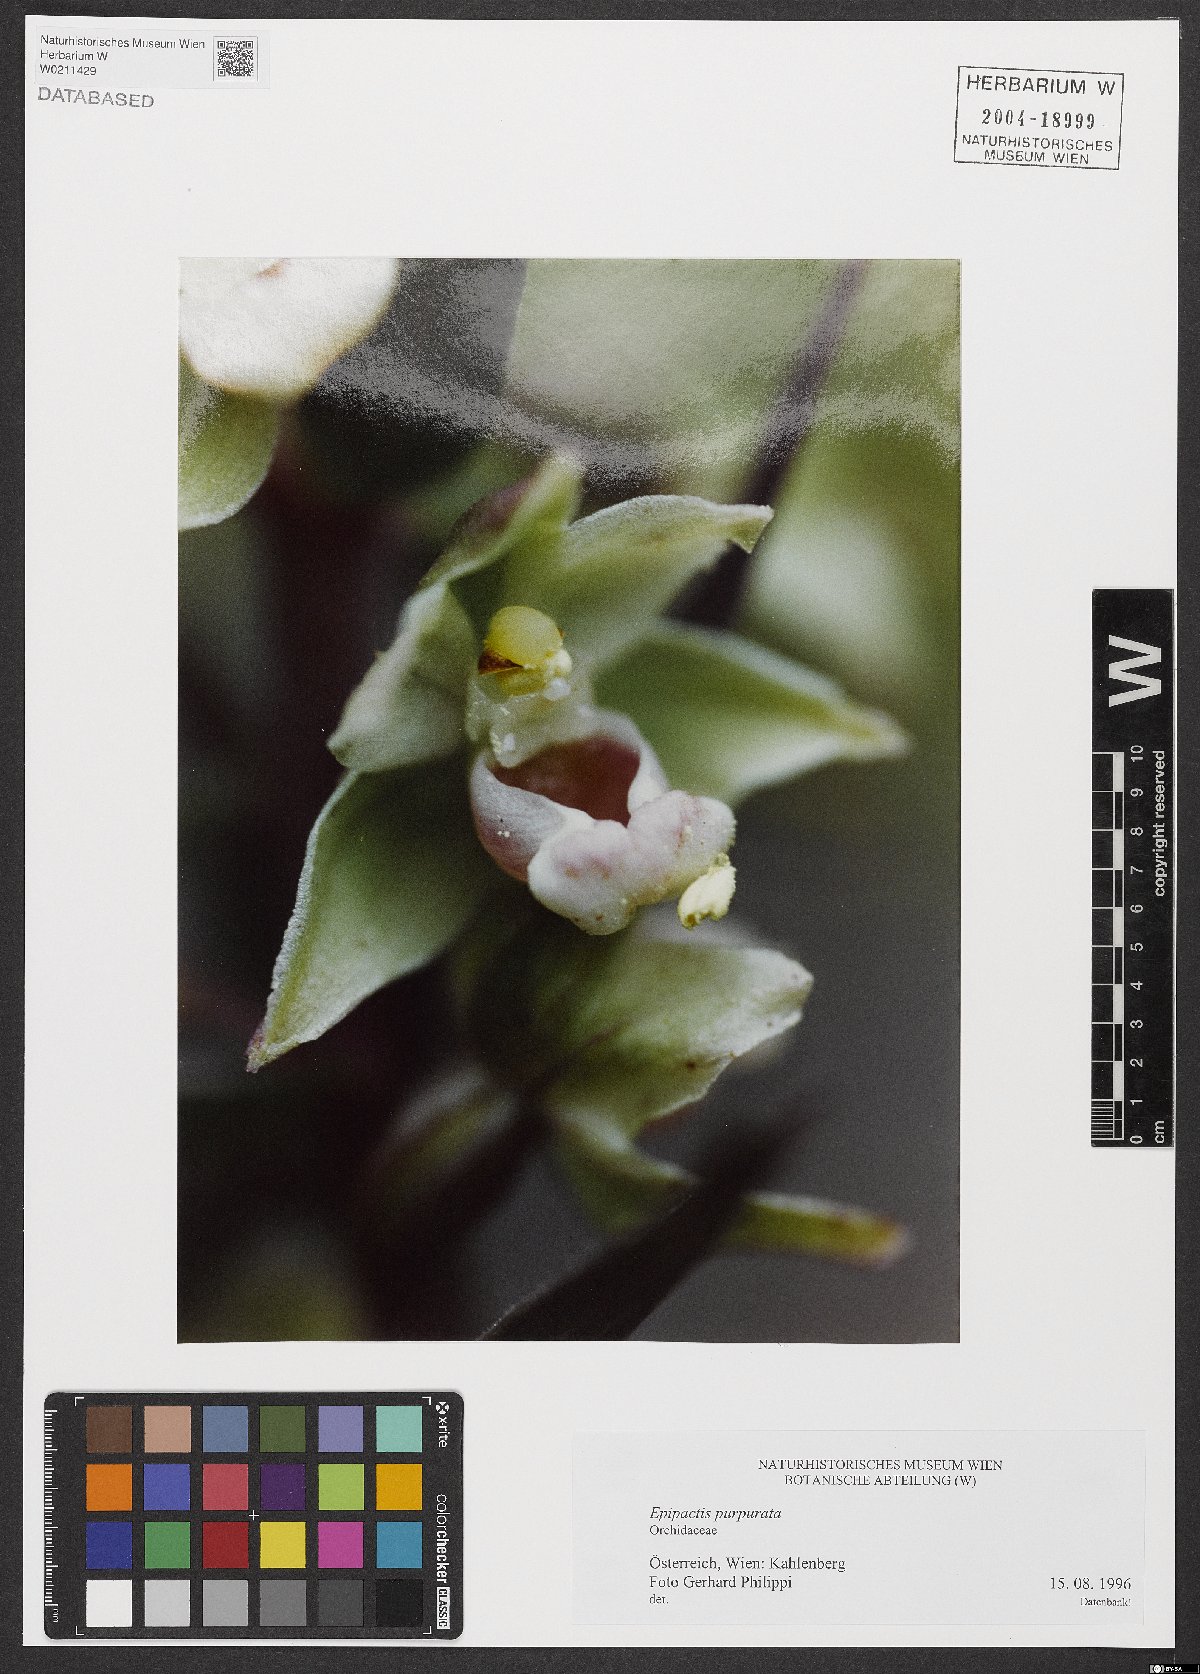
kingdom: Plantae
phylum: Tracheophyta
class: Liliopsida
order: Asparagales
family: Orchidaceae
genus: Epipactis
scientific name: Epipactis purpurata
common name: Violet helleborine
